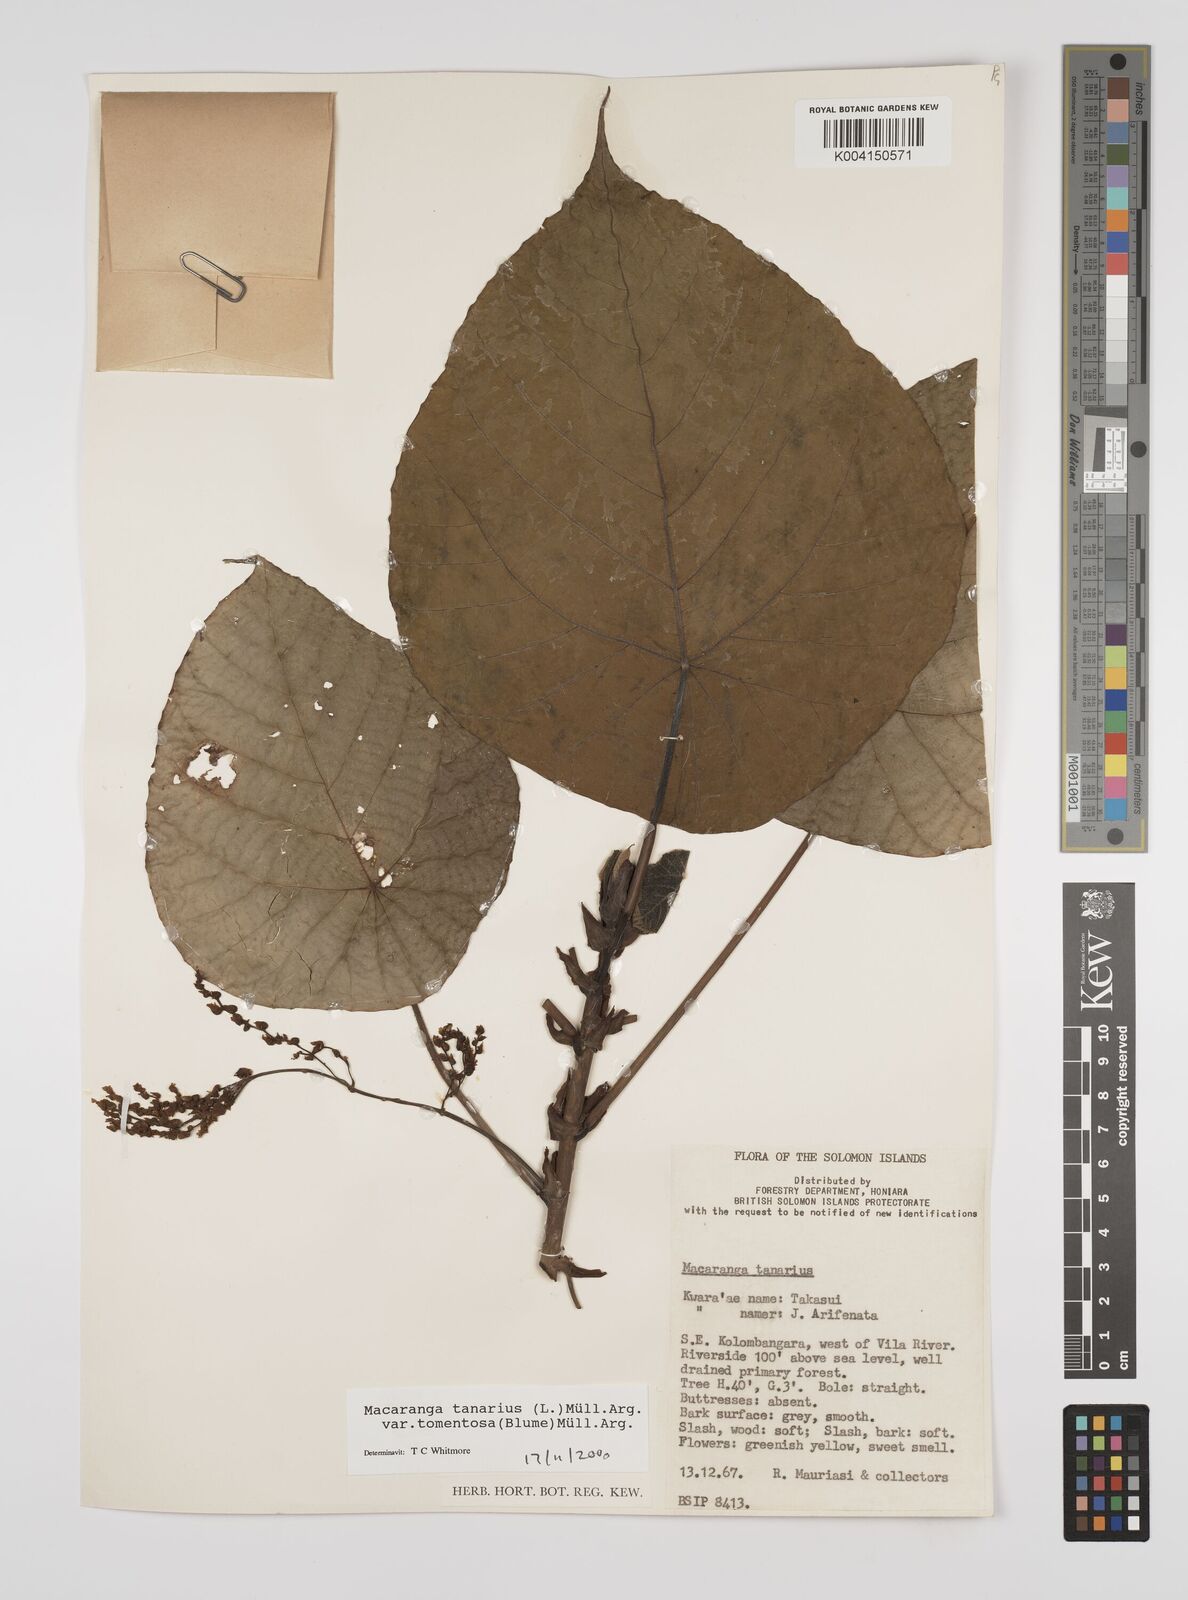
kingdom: Plantae
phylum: Tracheophyta
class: Magnoliopsida
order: Malpighiales
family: Euphorbiaceae
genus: Macaranga
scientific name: Macaranga tanarius
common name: Parasol leaf tree
